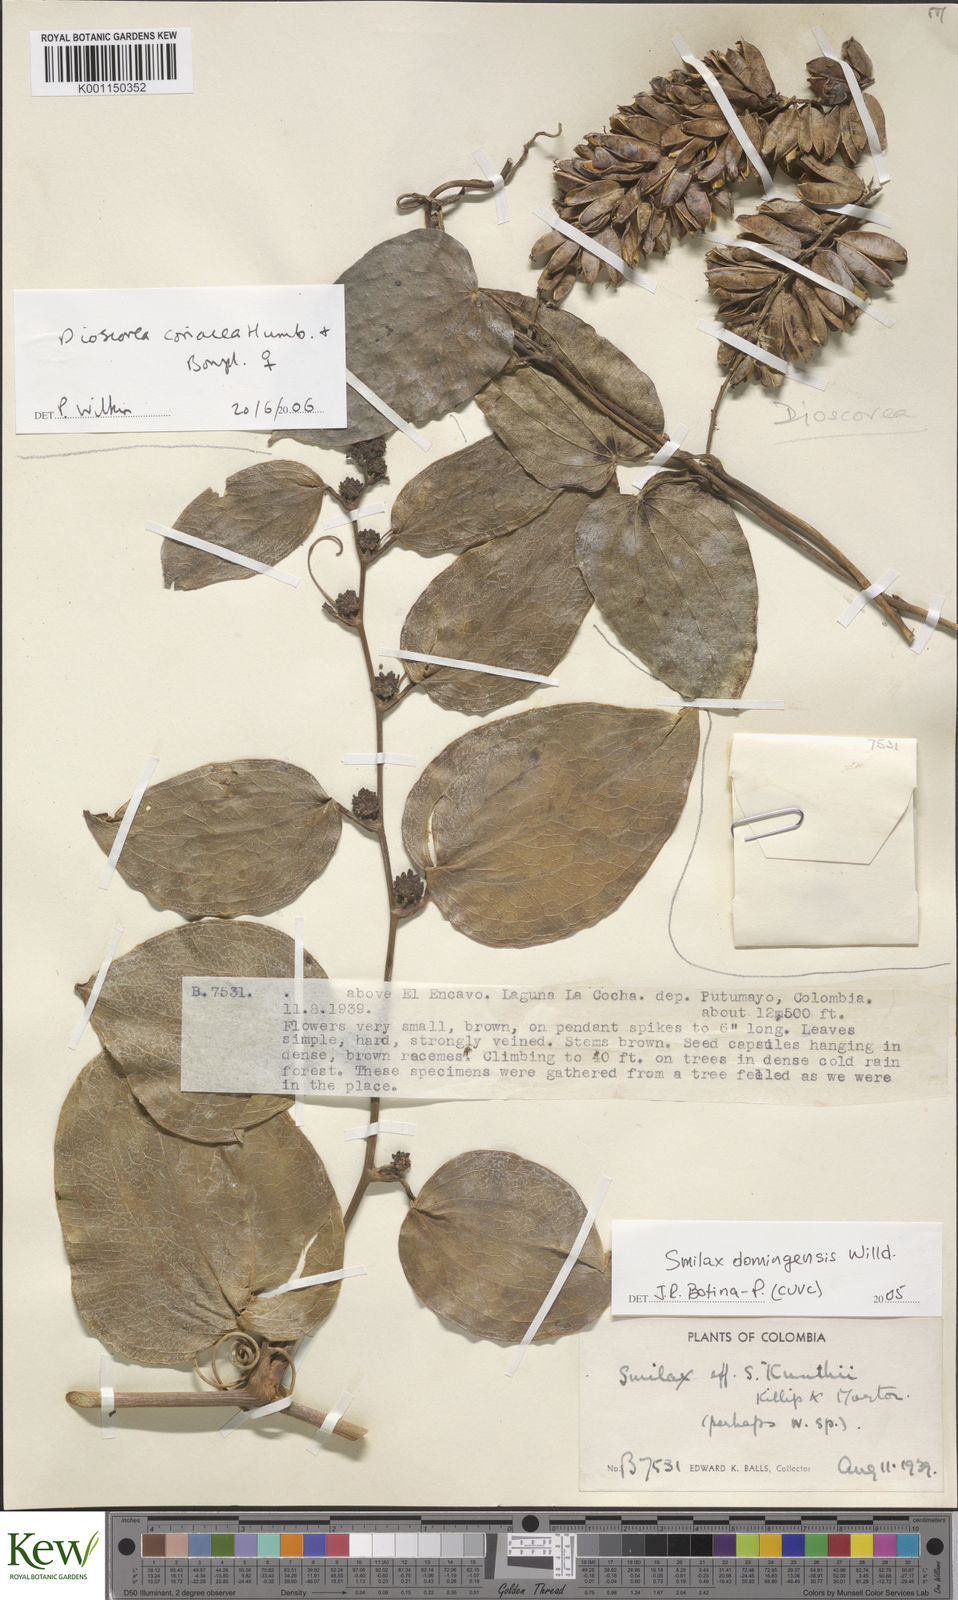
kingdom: Plantae
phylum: Tracheophyta
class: Liliopsida
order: Dioscoreales
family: Dioscoreaceae
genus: Dioscorea
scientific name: Dioscorea coriacea
